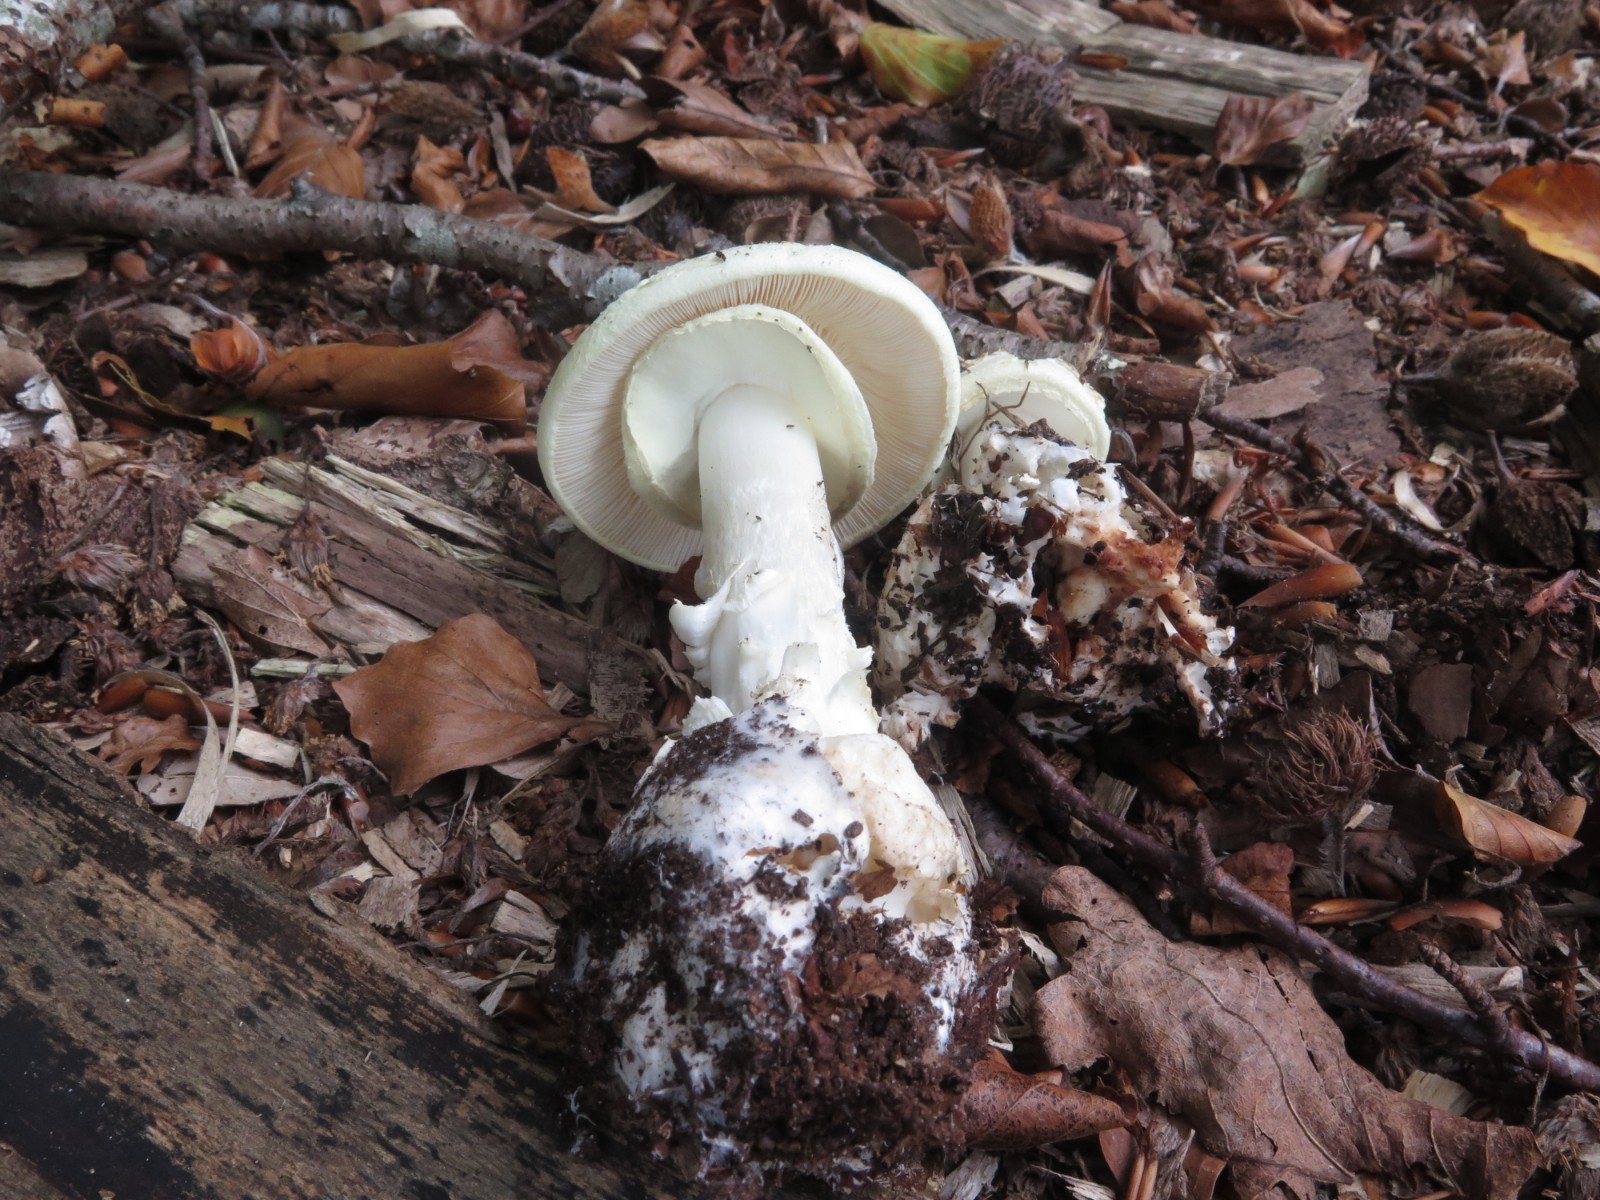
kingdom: Fungi
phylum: Basidiomycota
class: Agaricomycetes
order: Agaricales
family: Amanitaceae
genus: Amanita
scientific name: Amanita citrina
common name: False death-cap
